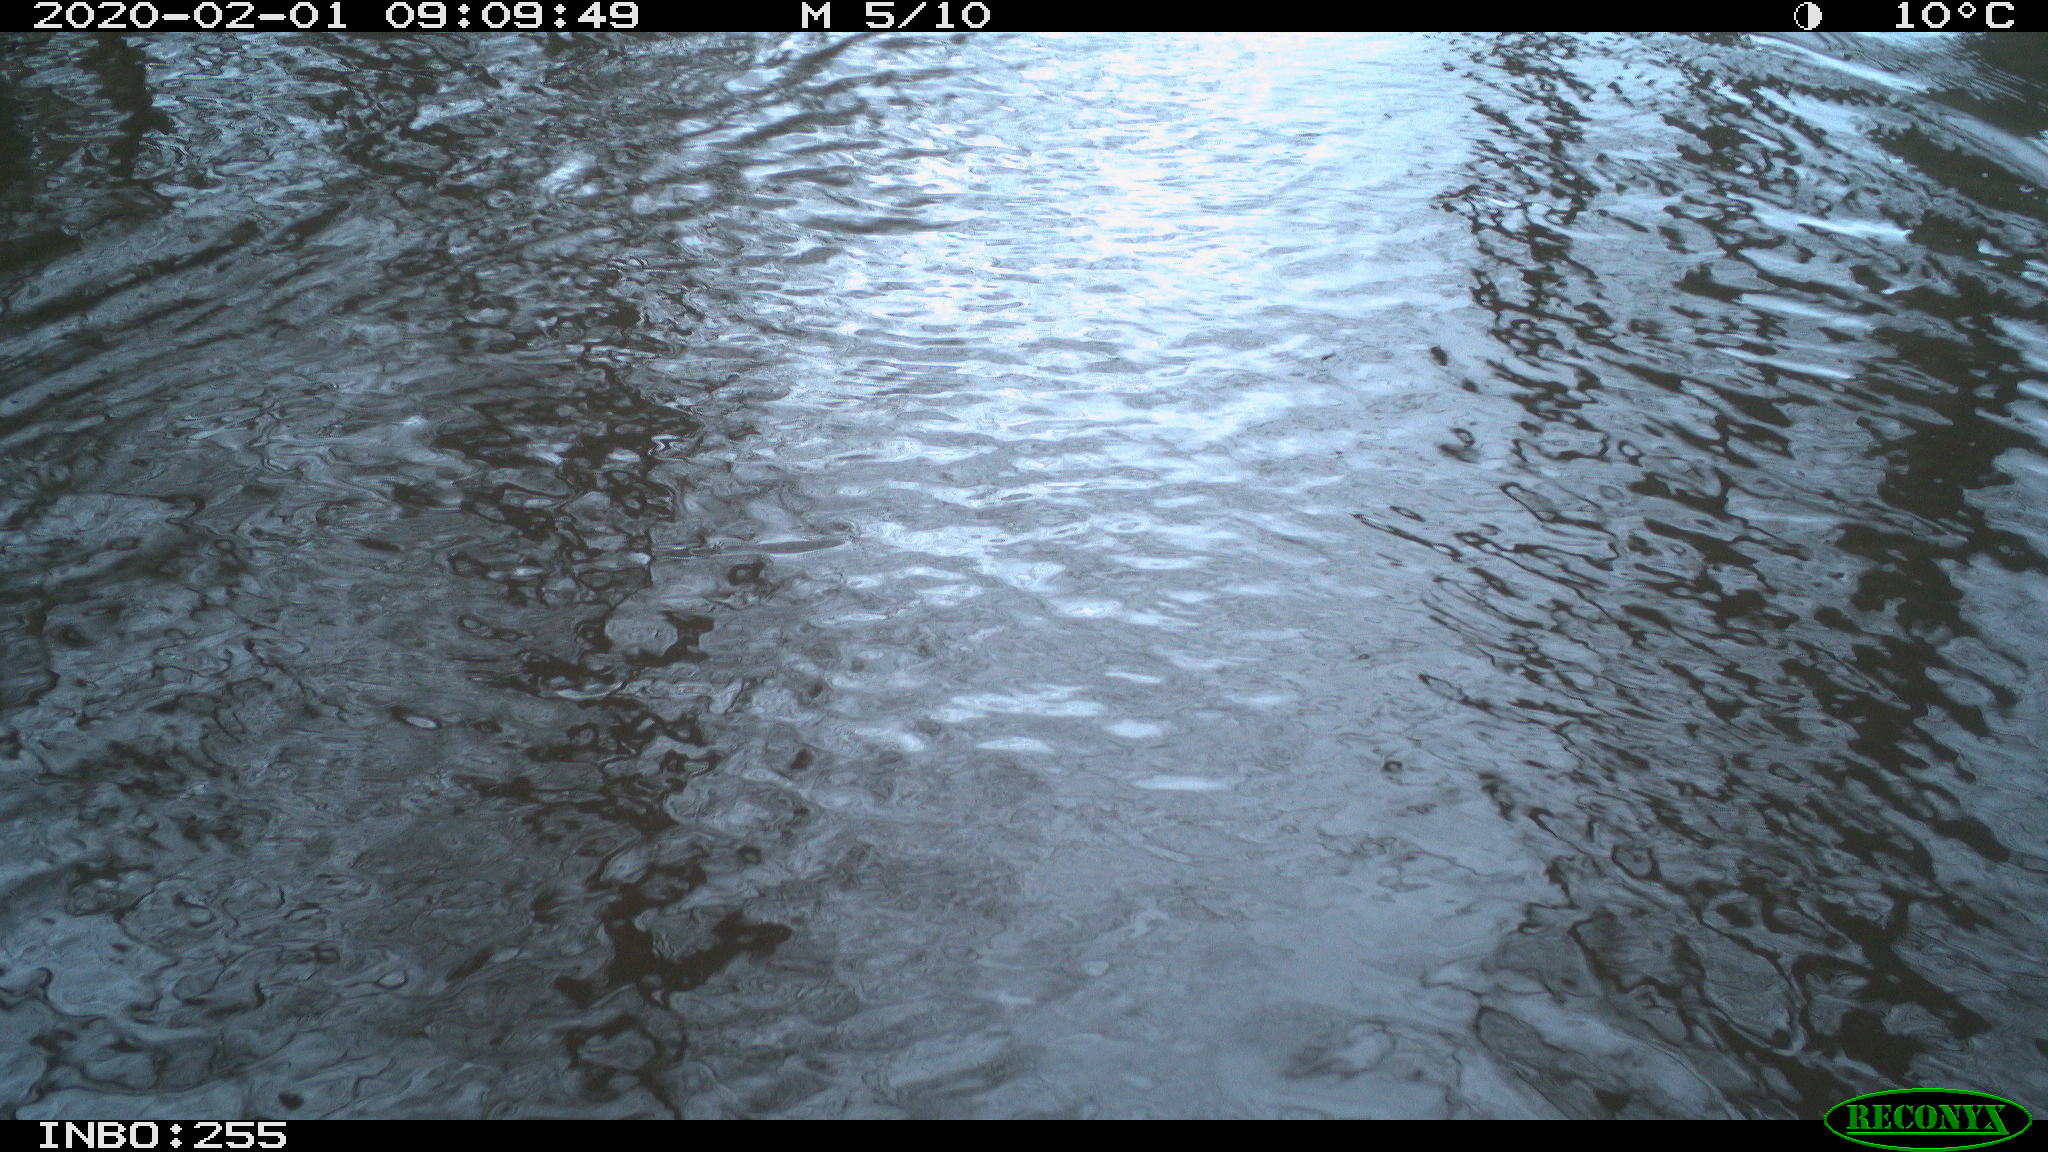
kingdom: Animalia
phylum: Chordata
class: Aves
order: Gruiformes
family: Rallidae
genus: Fulica
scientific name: Fulica atra
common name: Eurasian coot
